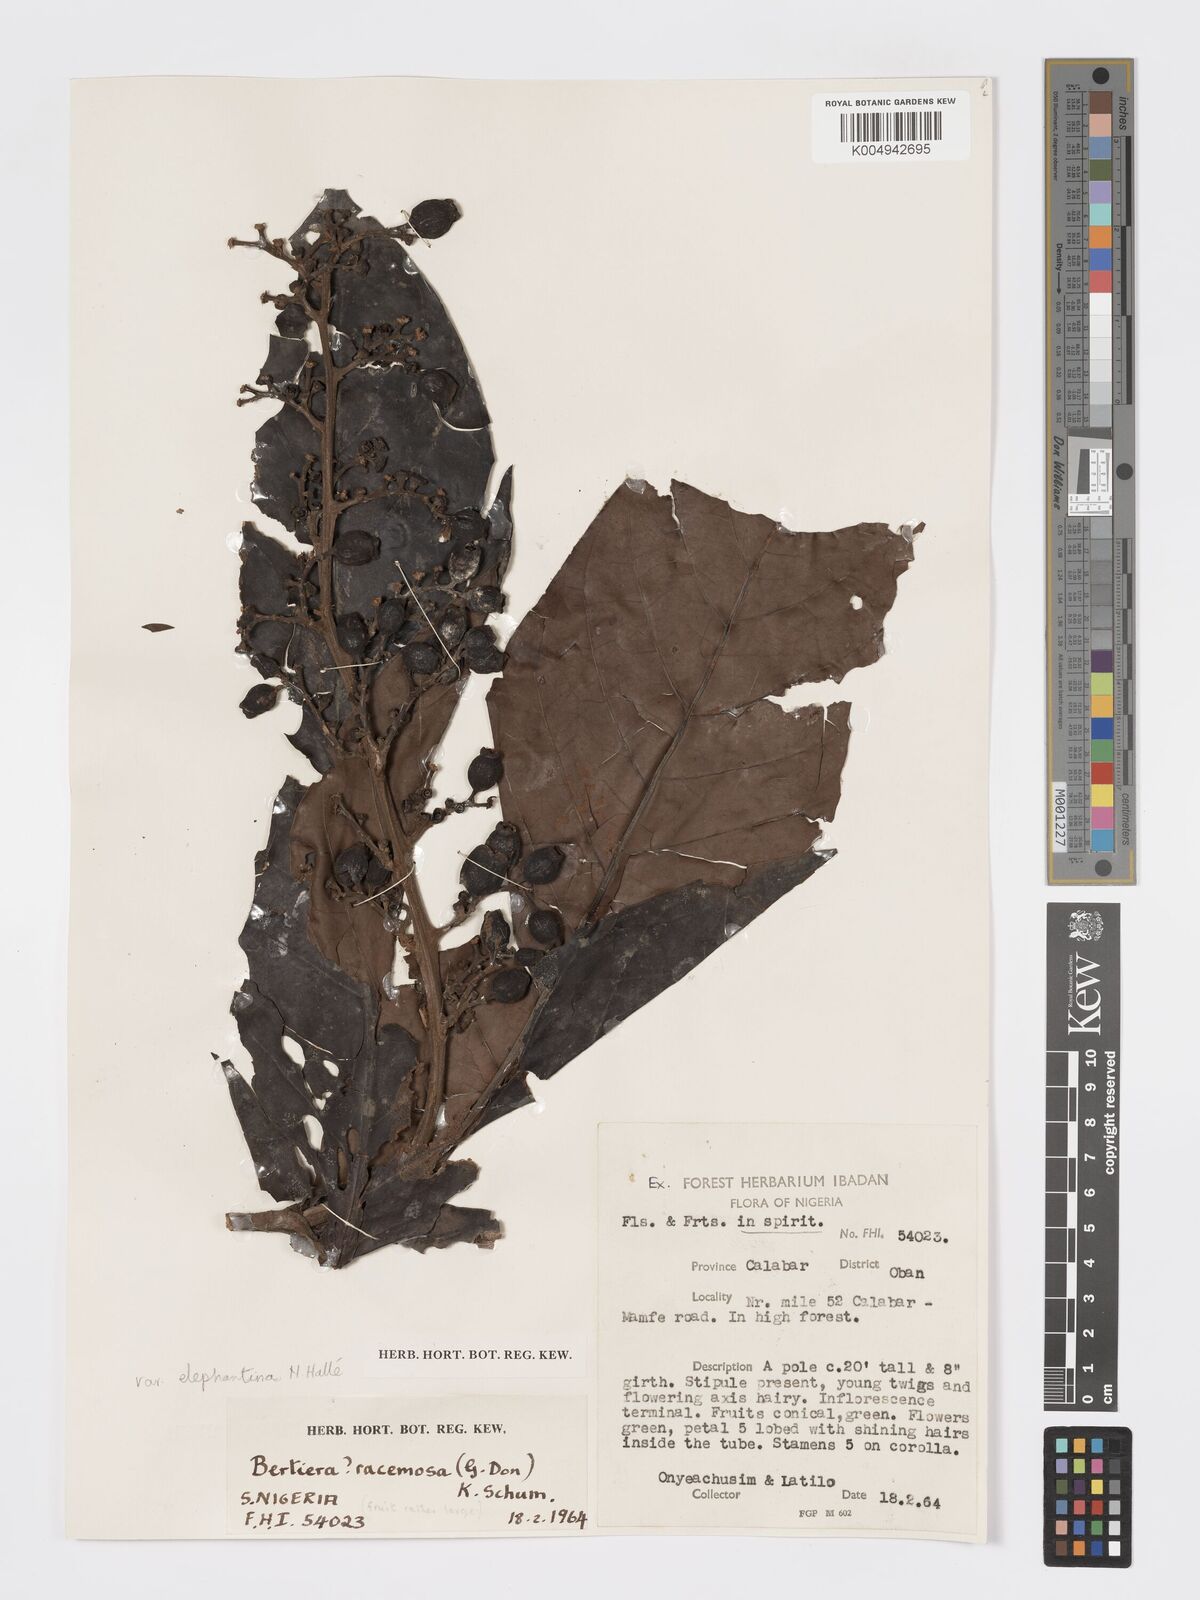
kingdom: Plantae
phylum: Tracheophyta
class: Magnoliopsida
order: Gentianales
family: Rubiaceae
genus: Bertiera
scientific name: Bertiera racemosa
